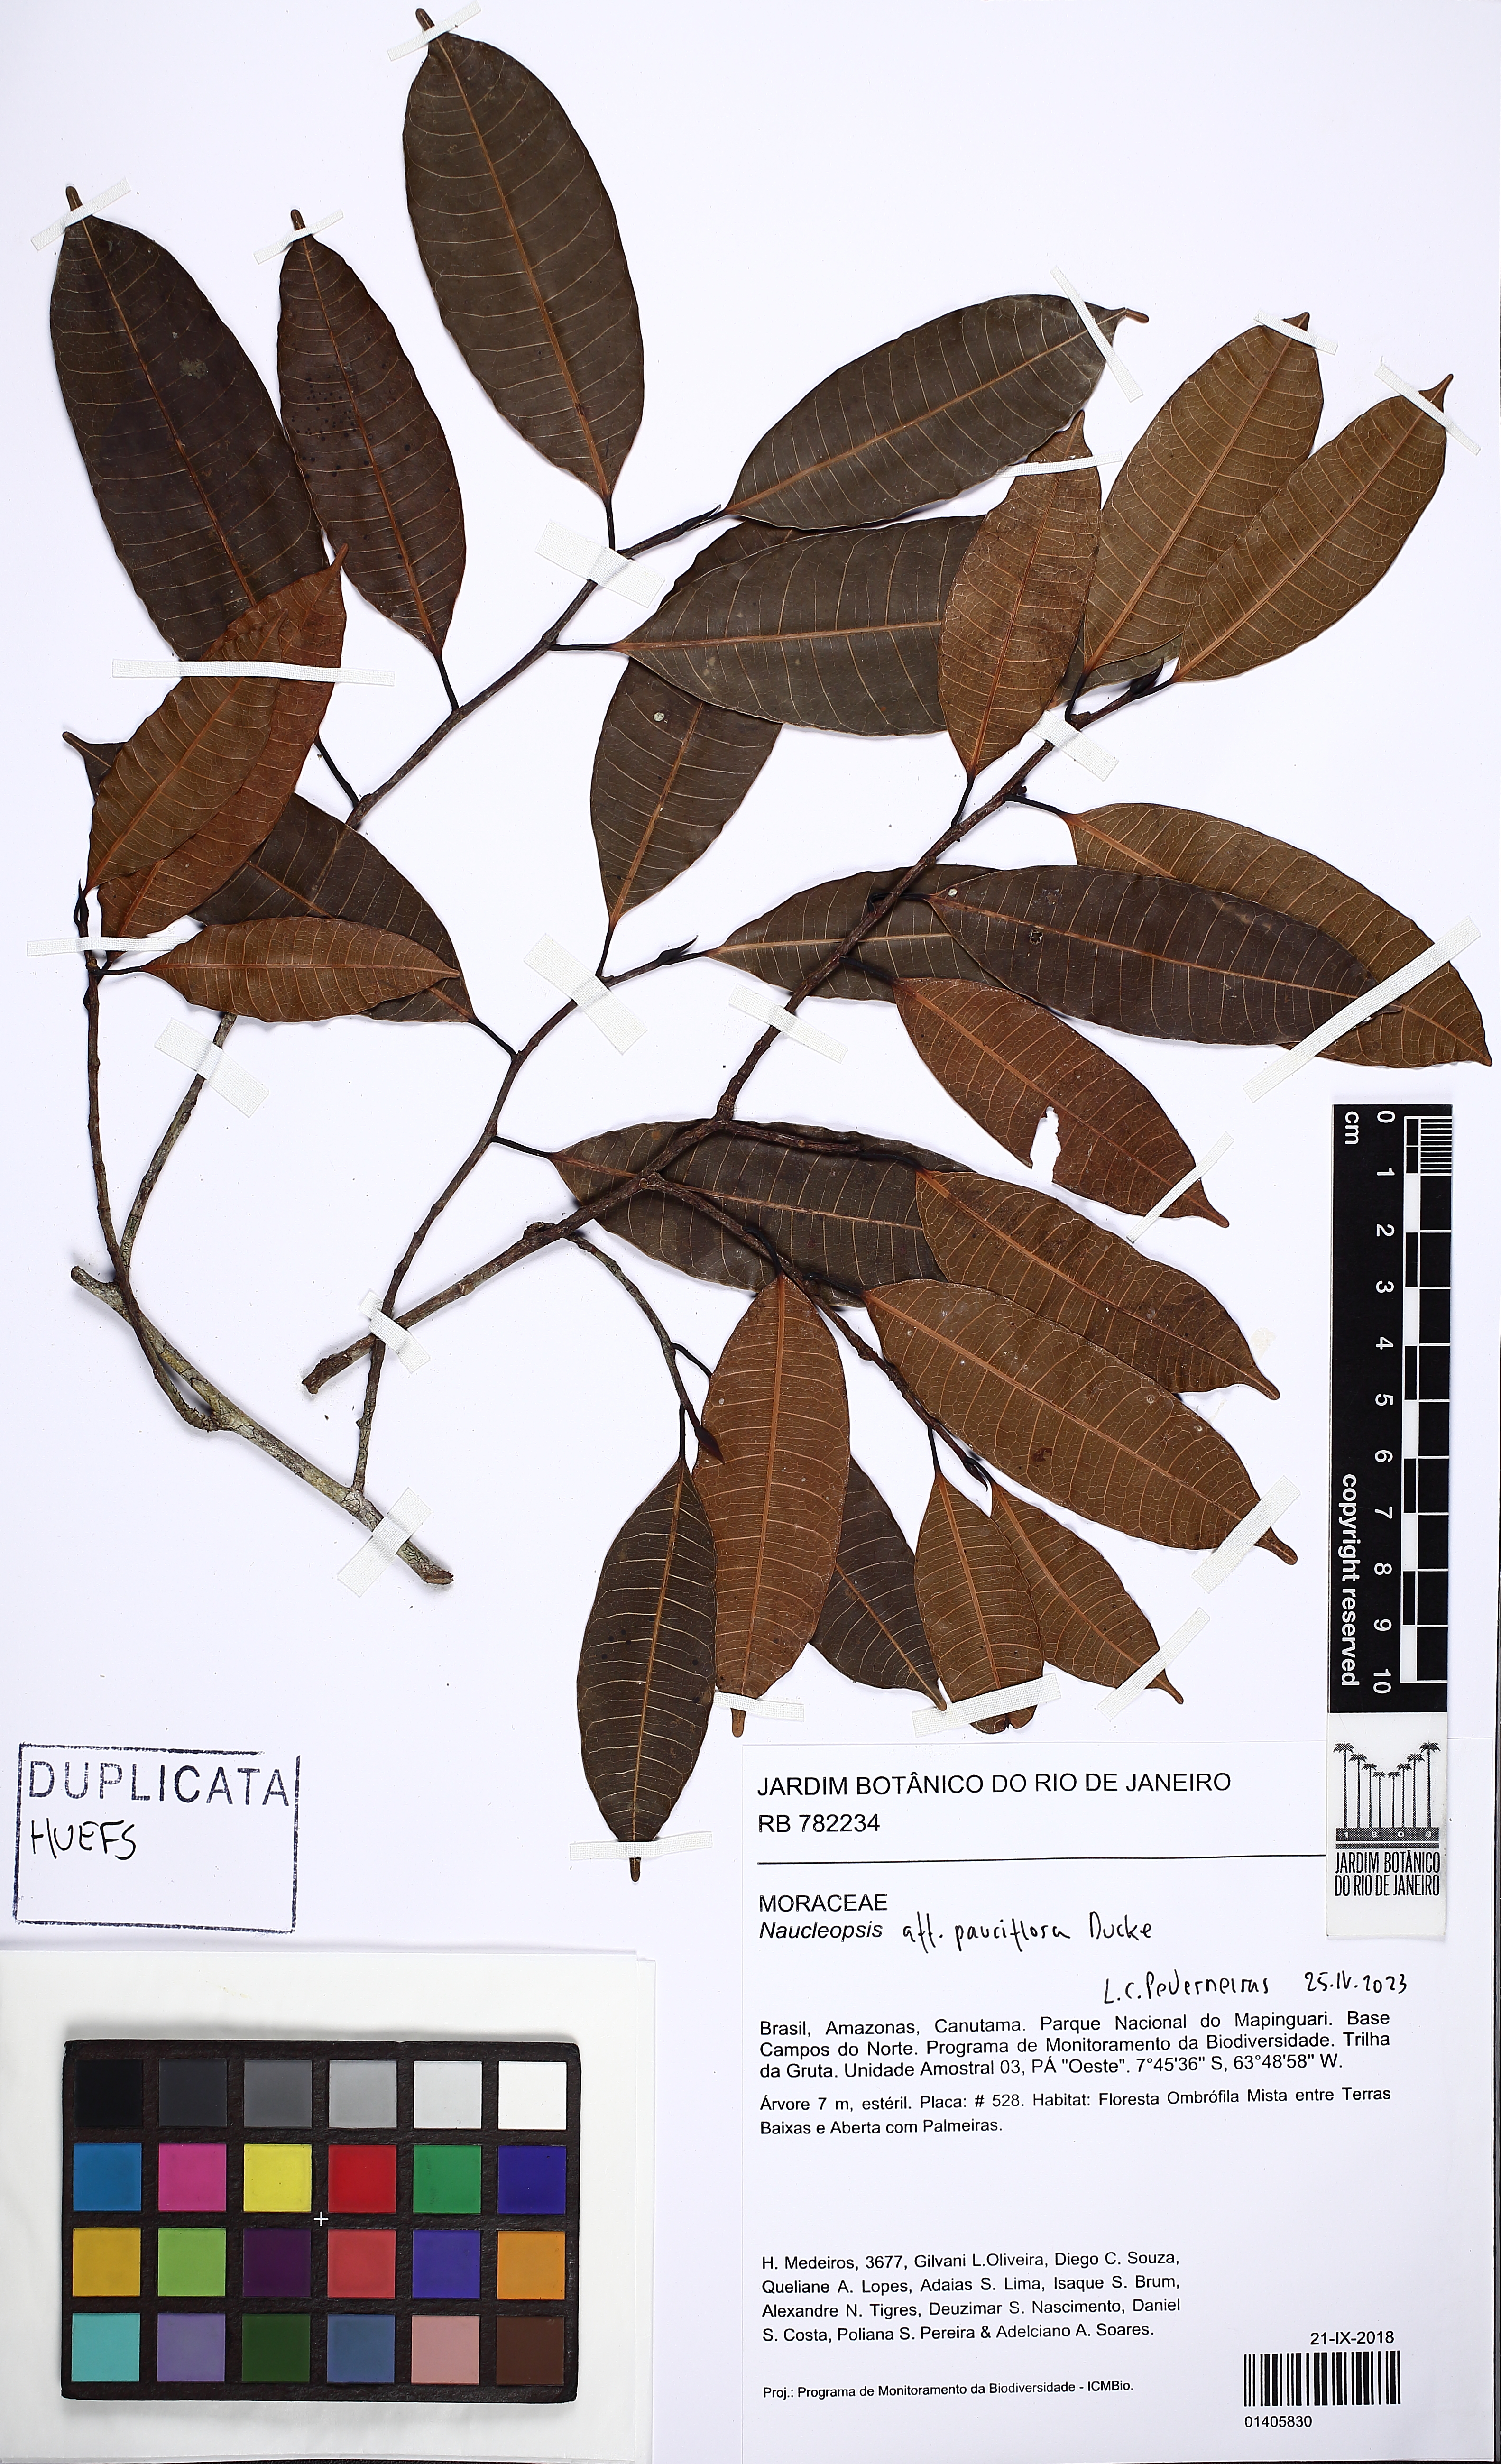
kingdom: Plantae
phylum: Tracheophyta
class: Magnoliopsida
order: Rosales
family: Moraceae
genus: Naucleopsis
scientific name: Naucleopsis ternstroemiiflora
